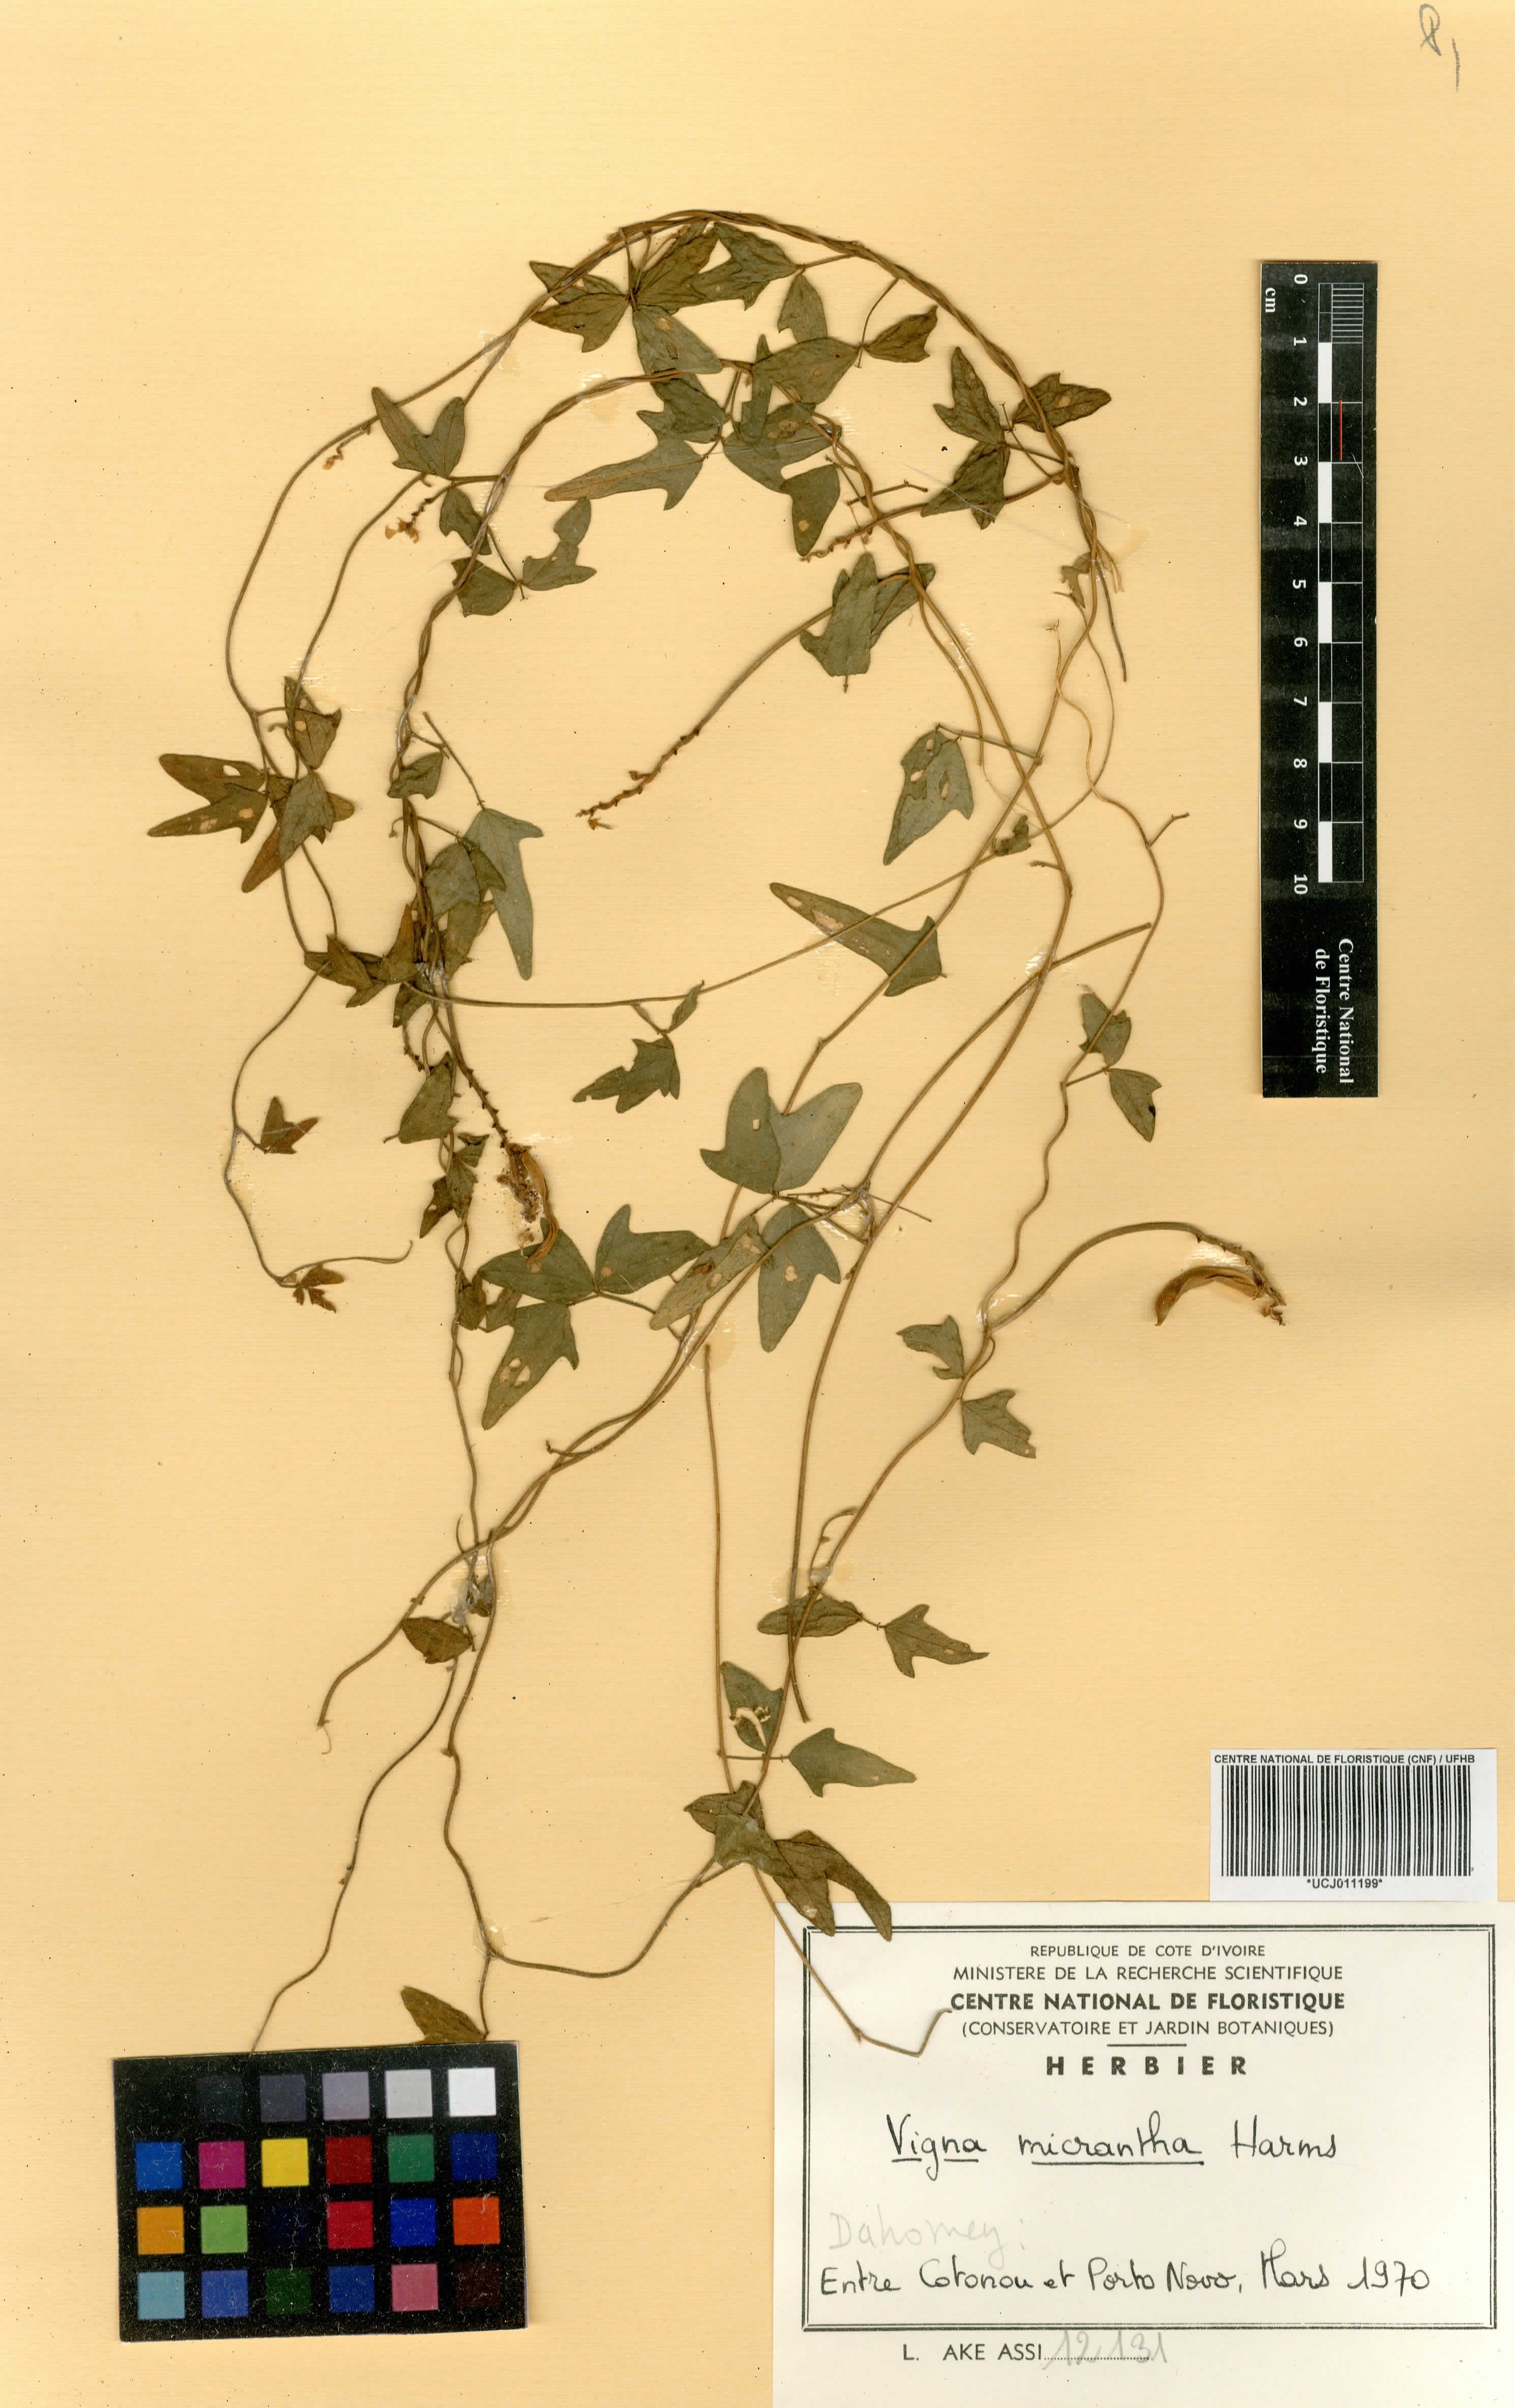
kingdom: Plantae
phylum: Tracheophyta
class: Magnoliopsida
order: Fabales
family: Fabaceae
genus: Vigna
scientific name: Vigna comosa
